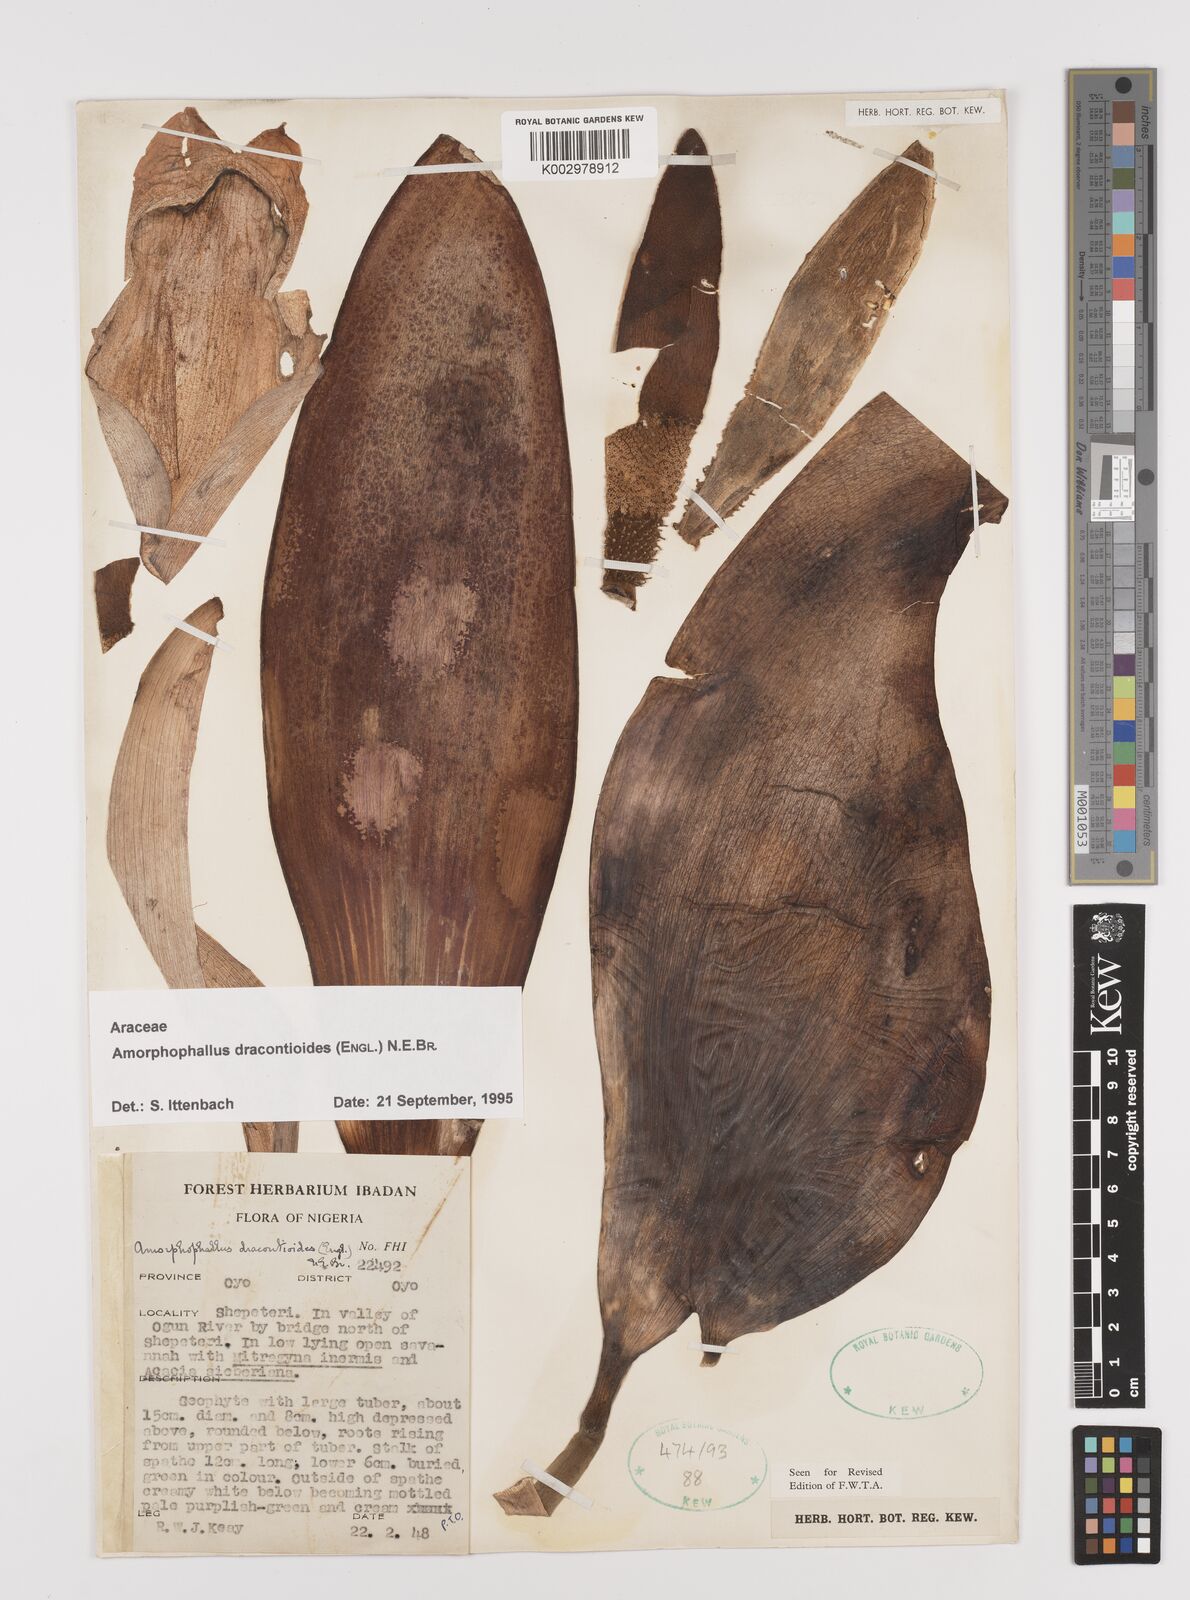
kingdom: Plantae
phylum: Tracheophyta
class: Liliopsida
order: Alismatales
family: Araceae
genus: Amorphophallus
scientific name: Amorphophallus dracontioides
